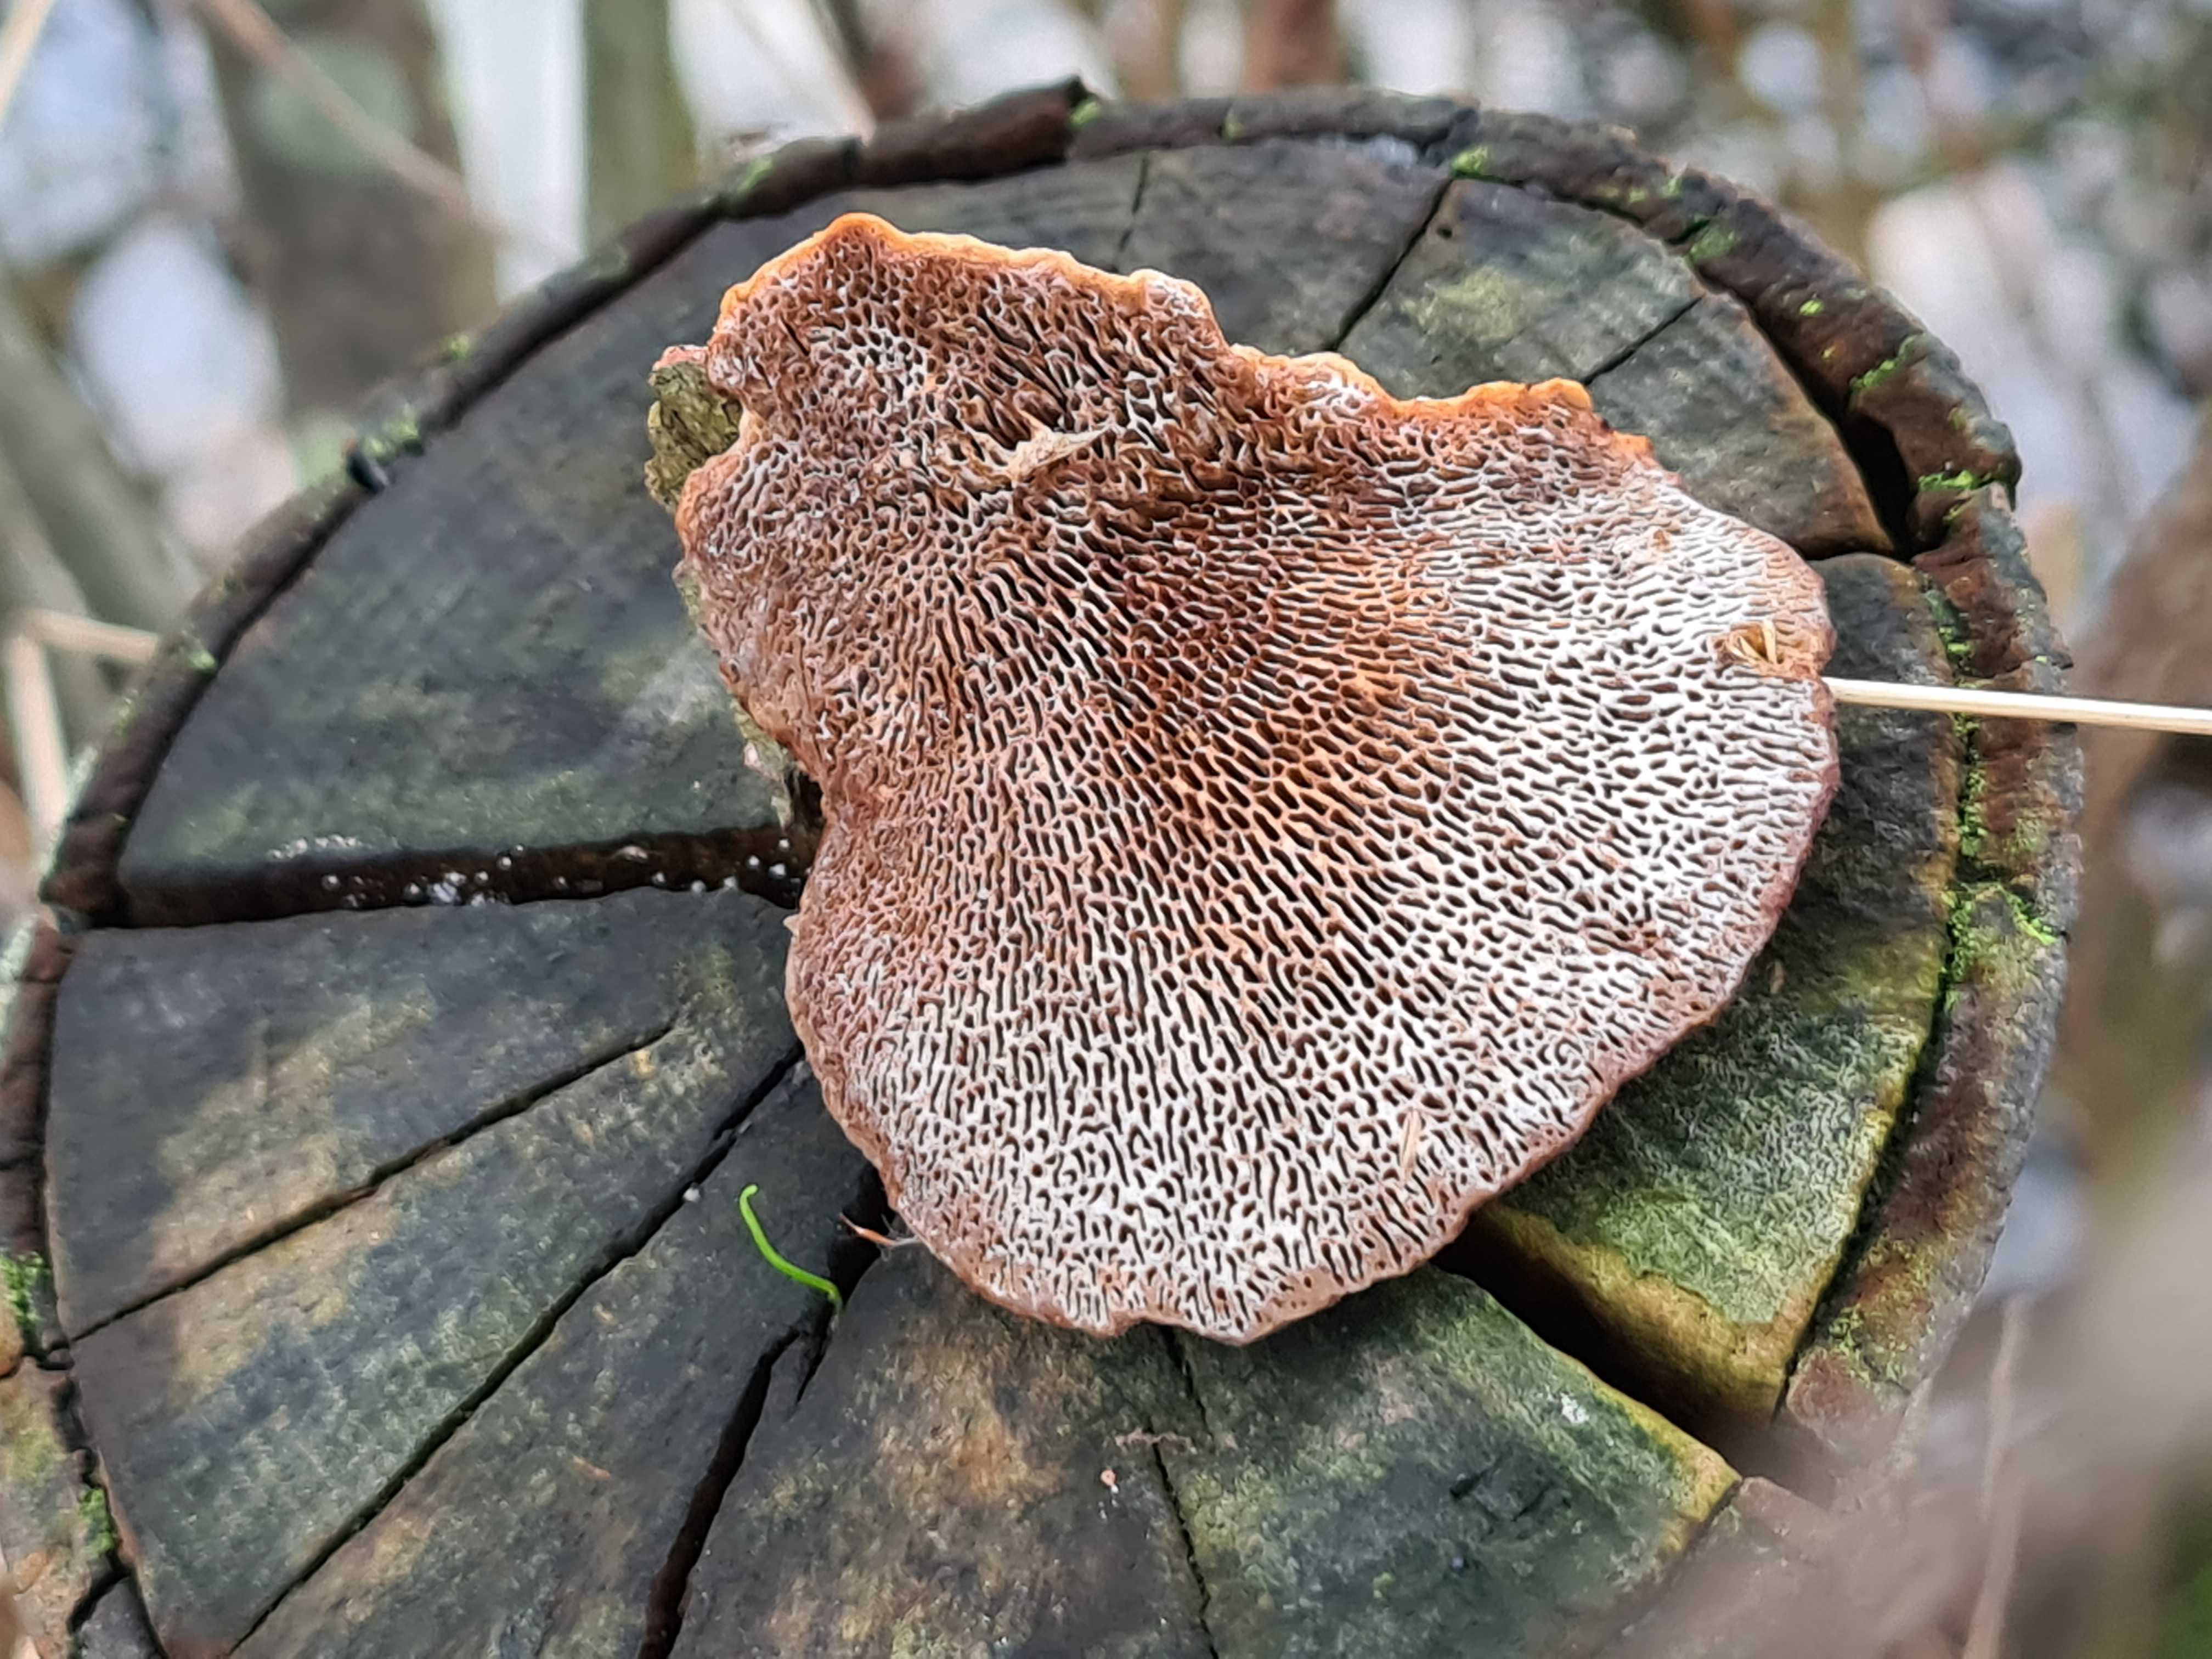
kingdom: Fungi
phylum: Basidiomycota
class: Agaricomycetes
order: Polyporales
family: Polyporaceae
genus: Daedaleopsis
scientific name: Daedaleopsis confragosa
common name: rødmende læderporesvamp
